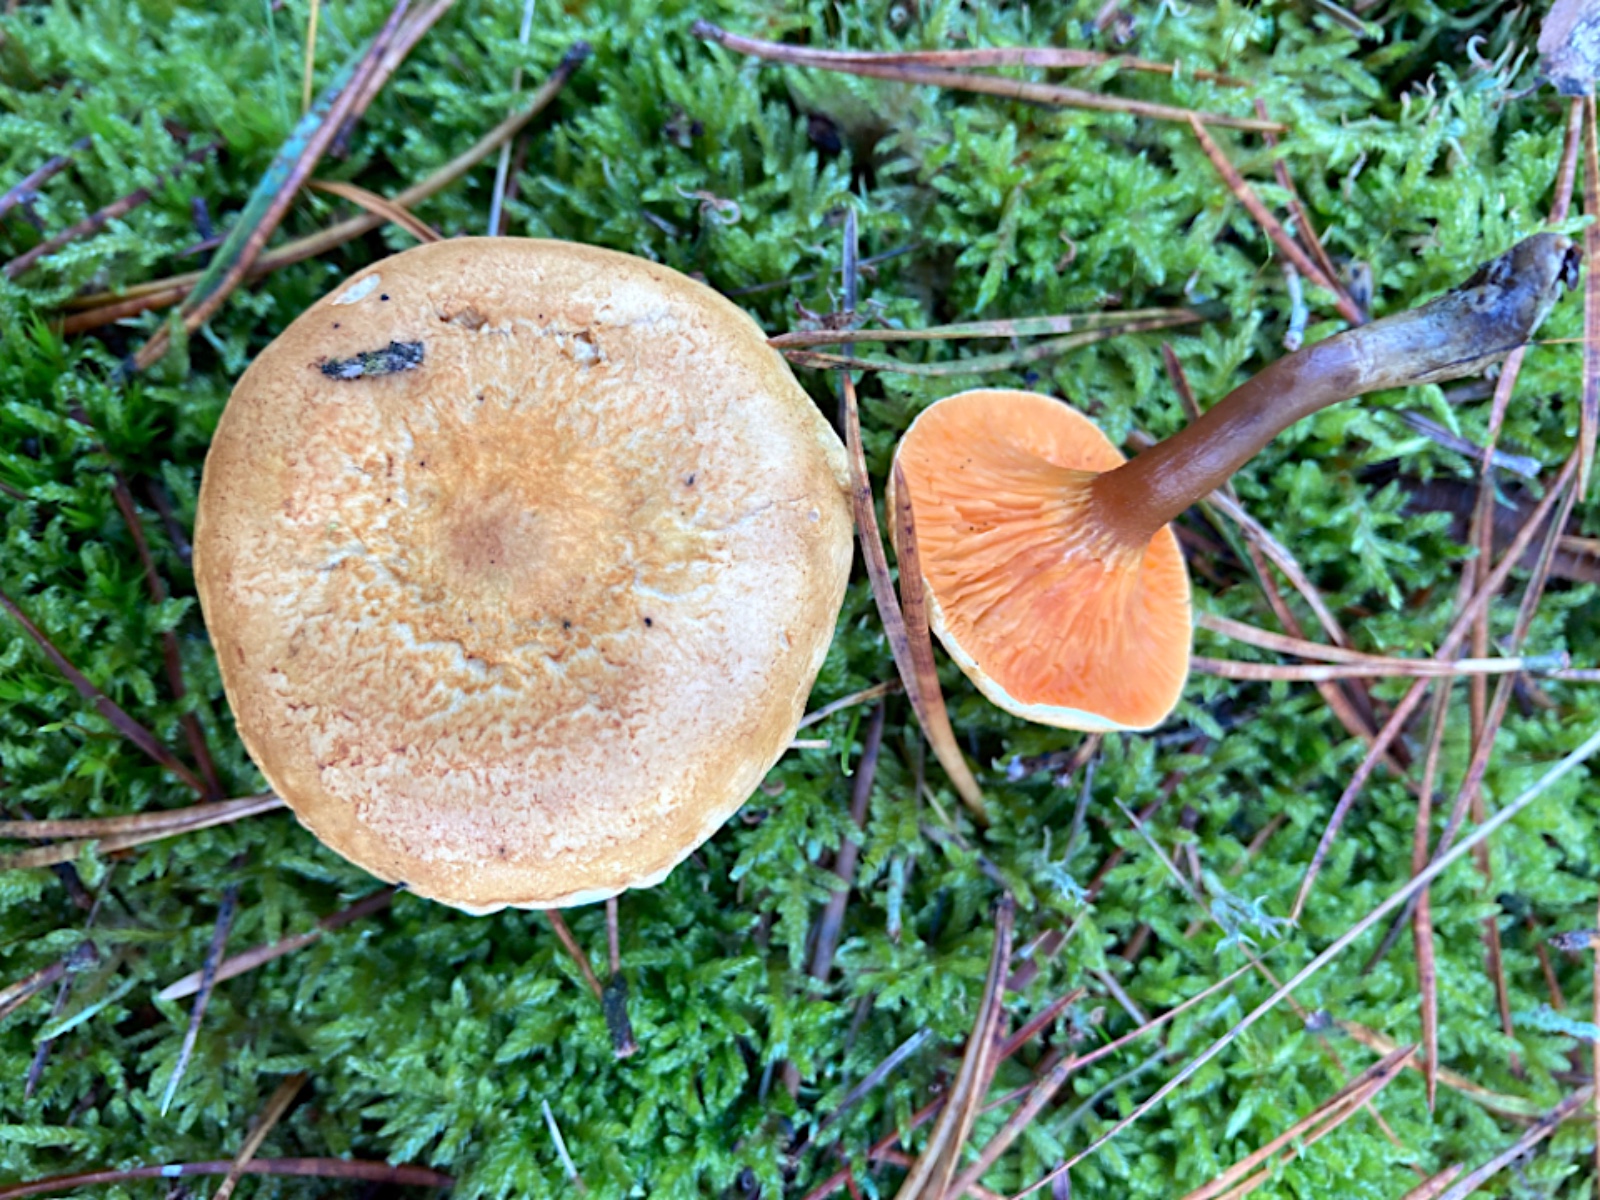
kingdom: Fungi
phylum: Basidiomycota
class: Agaricomycetes
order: Boletales
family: Hygrophoropsidaceae
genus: Hygrophoropsis
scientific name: Hygrophoropsis aurantiaca
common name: almindelig orangekantarel
